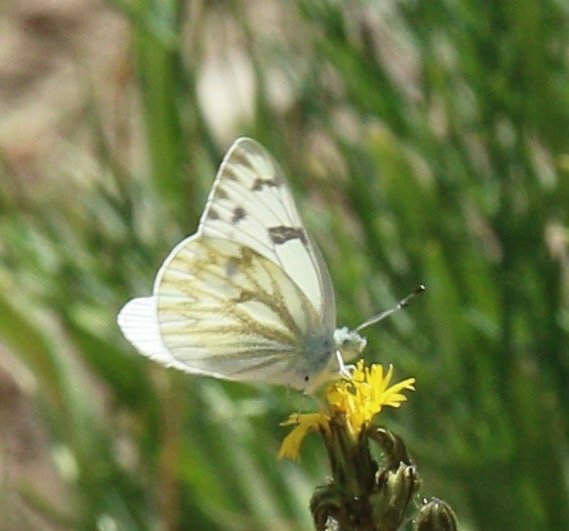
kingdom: Animalia
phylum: Arthropoda
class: Insecta
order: Lepidoptera
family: Pieridae
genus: Pontia
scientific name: Pontia protodice
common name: Checkered White
